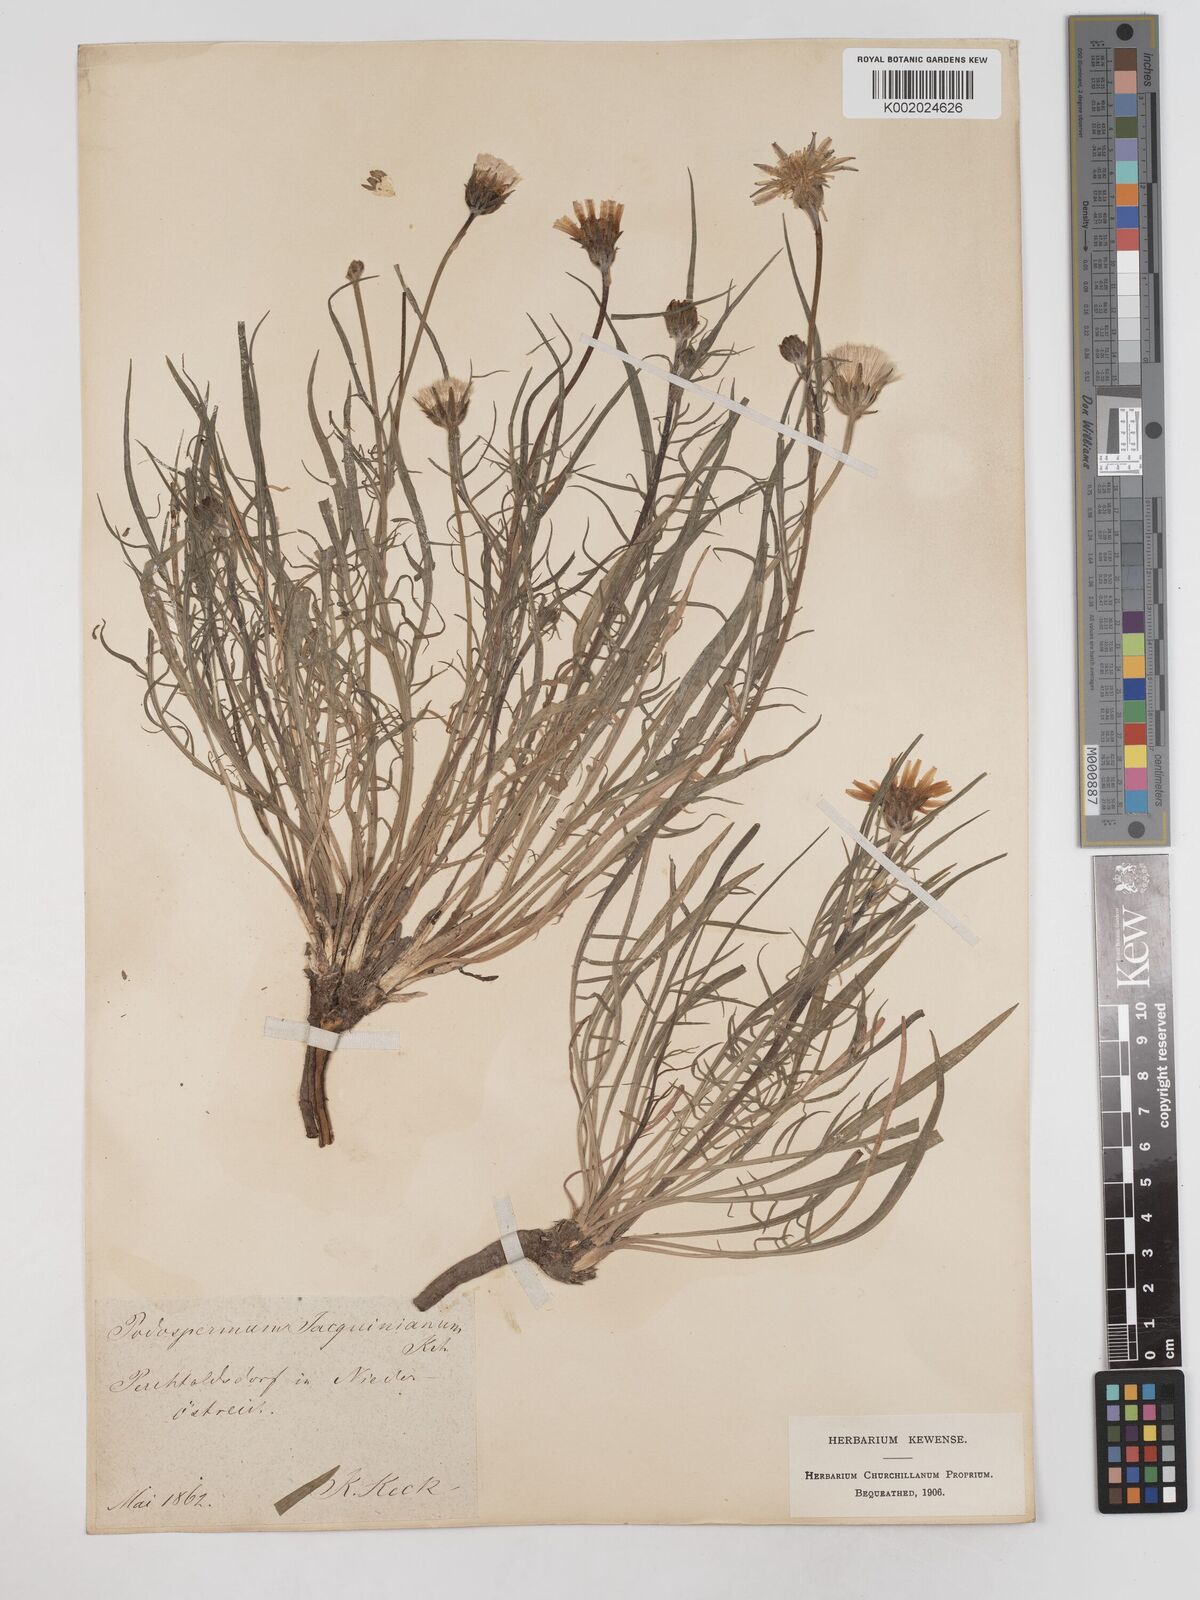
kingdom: Plantae
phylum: Tracheophyta
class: Magnoliopsida
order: Asterales
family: Asteraceae
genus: Scorzonera
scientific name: Scorzonera cana
